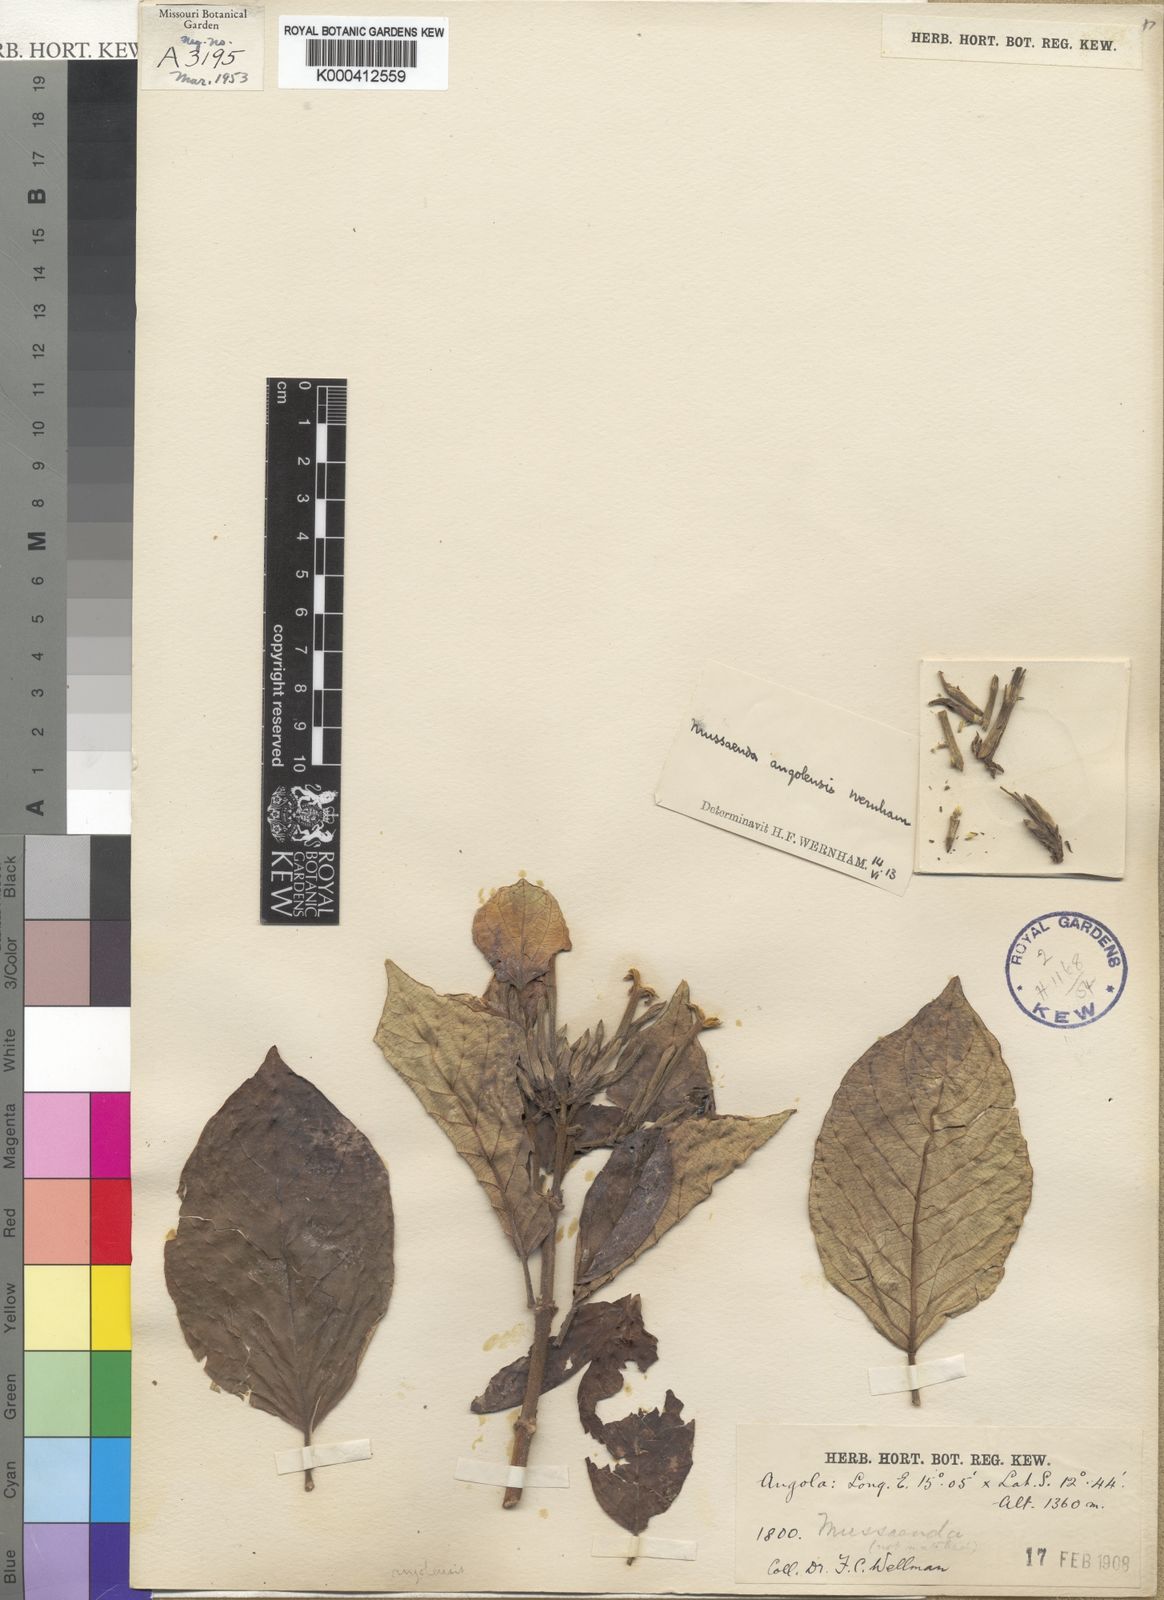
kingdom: Plantae
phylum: Tracheophyta
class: Magnoliopsida
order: Gentianales
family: Rubiaceae
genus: Mussaenda
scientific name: Mussaenda angolensis
